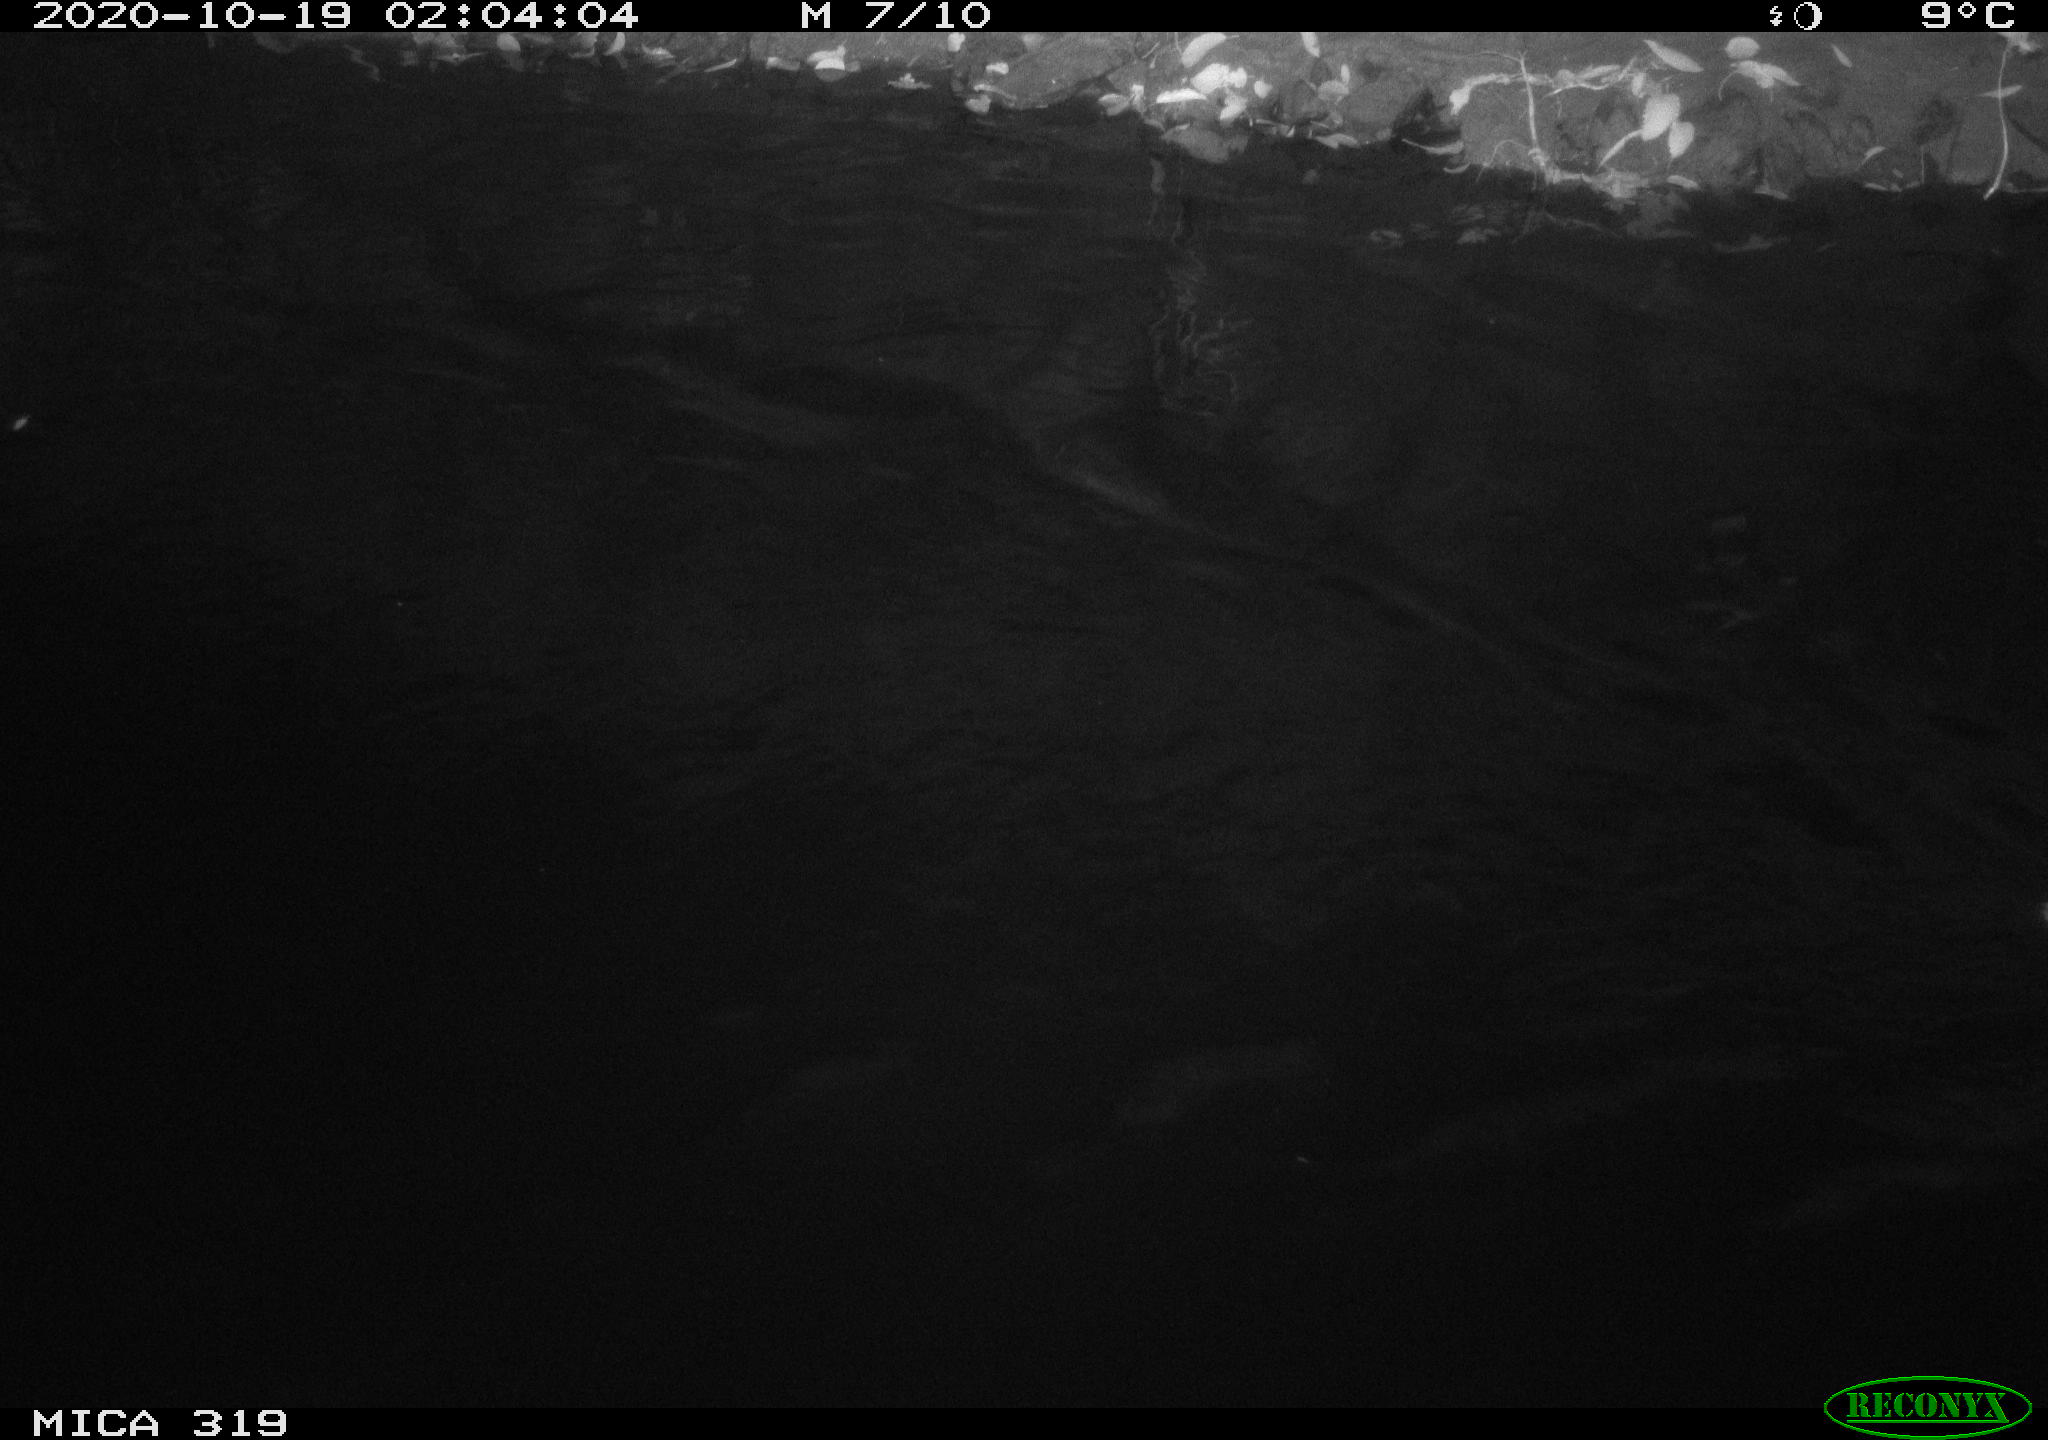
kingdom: Animalia
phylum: Chordata
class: Aves
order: Anseriformes
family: Anatidae
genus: Anas
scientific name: Anas platyrhynchos
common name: Mallard
